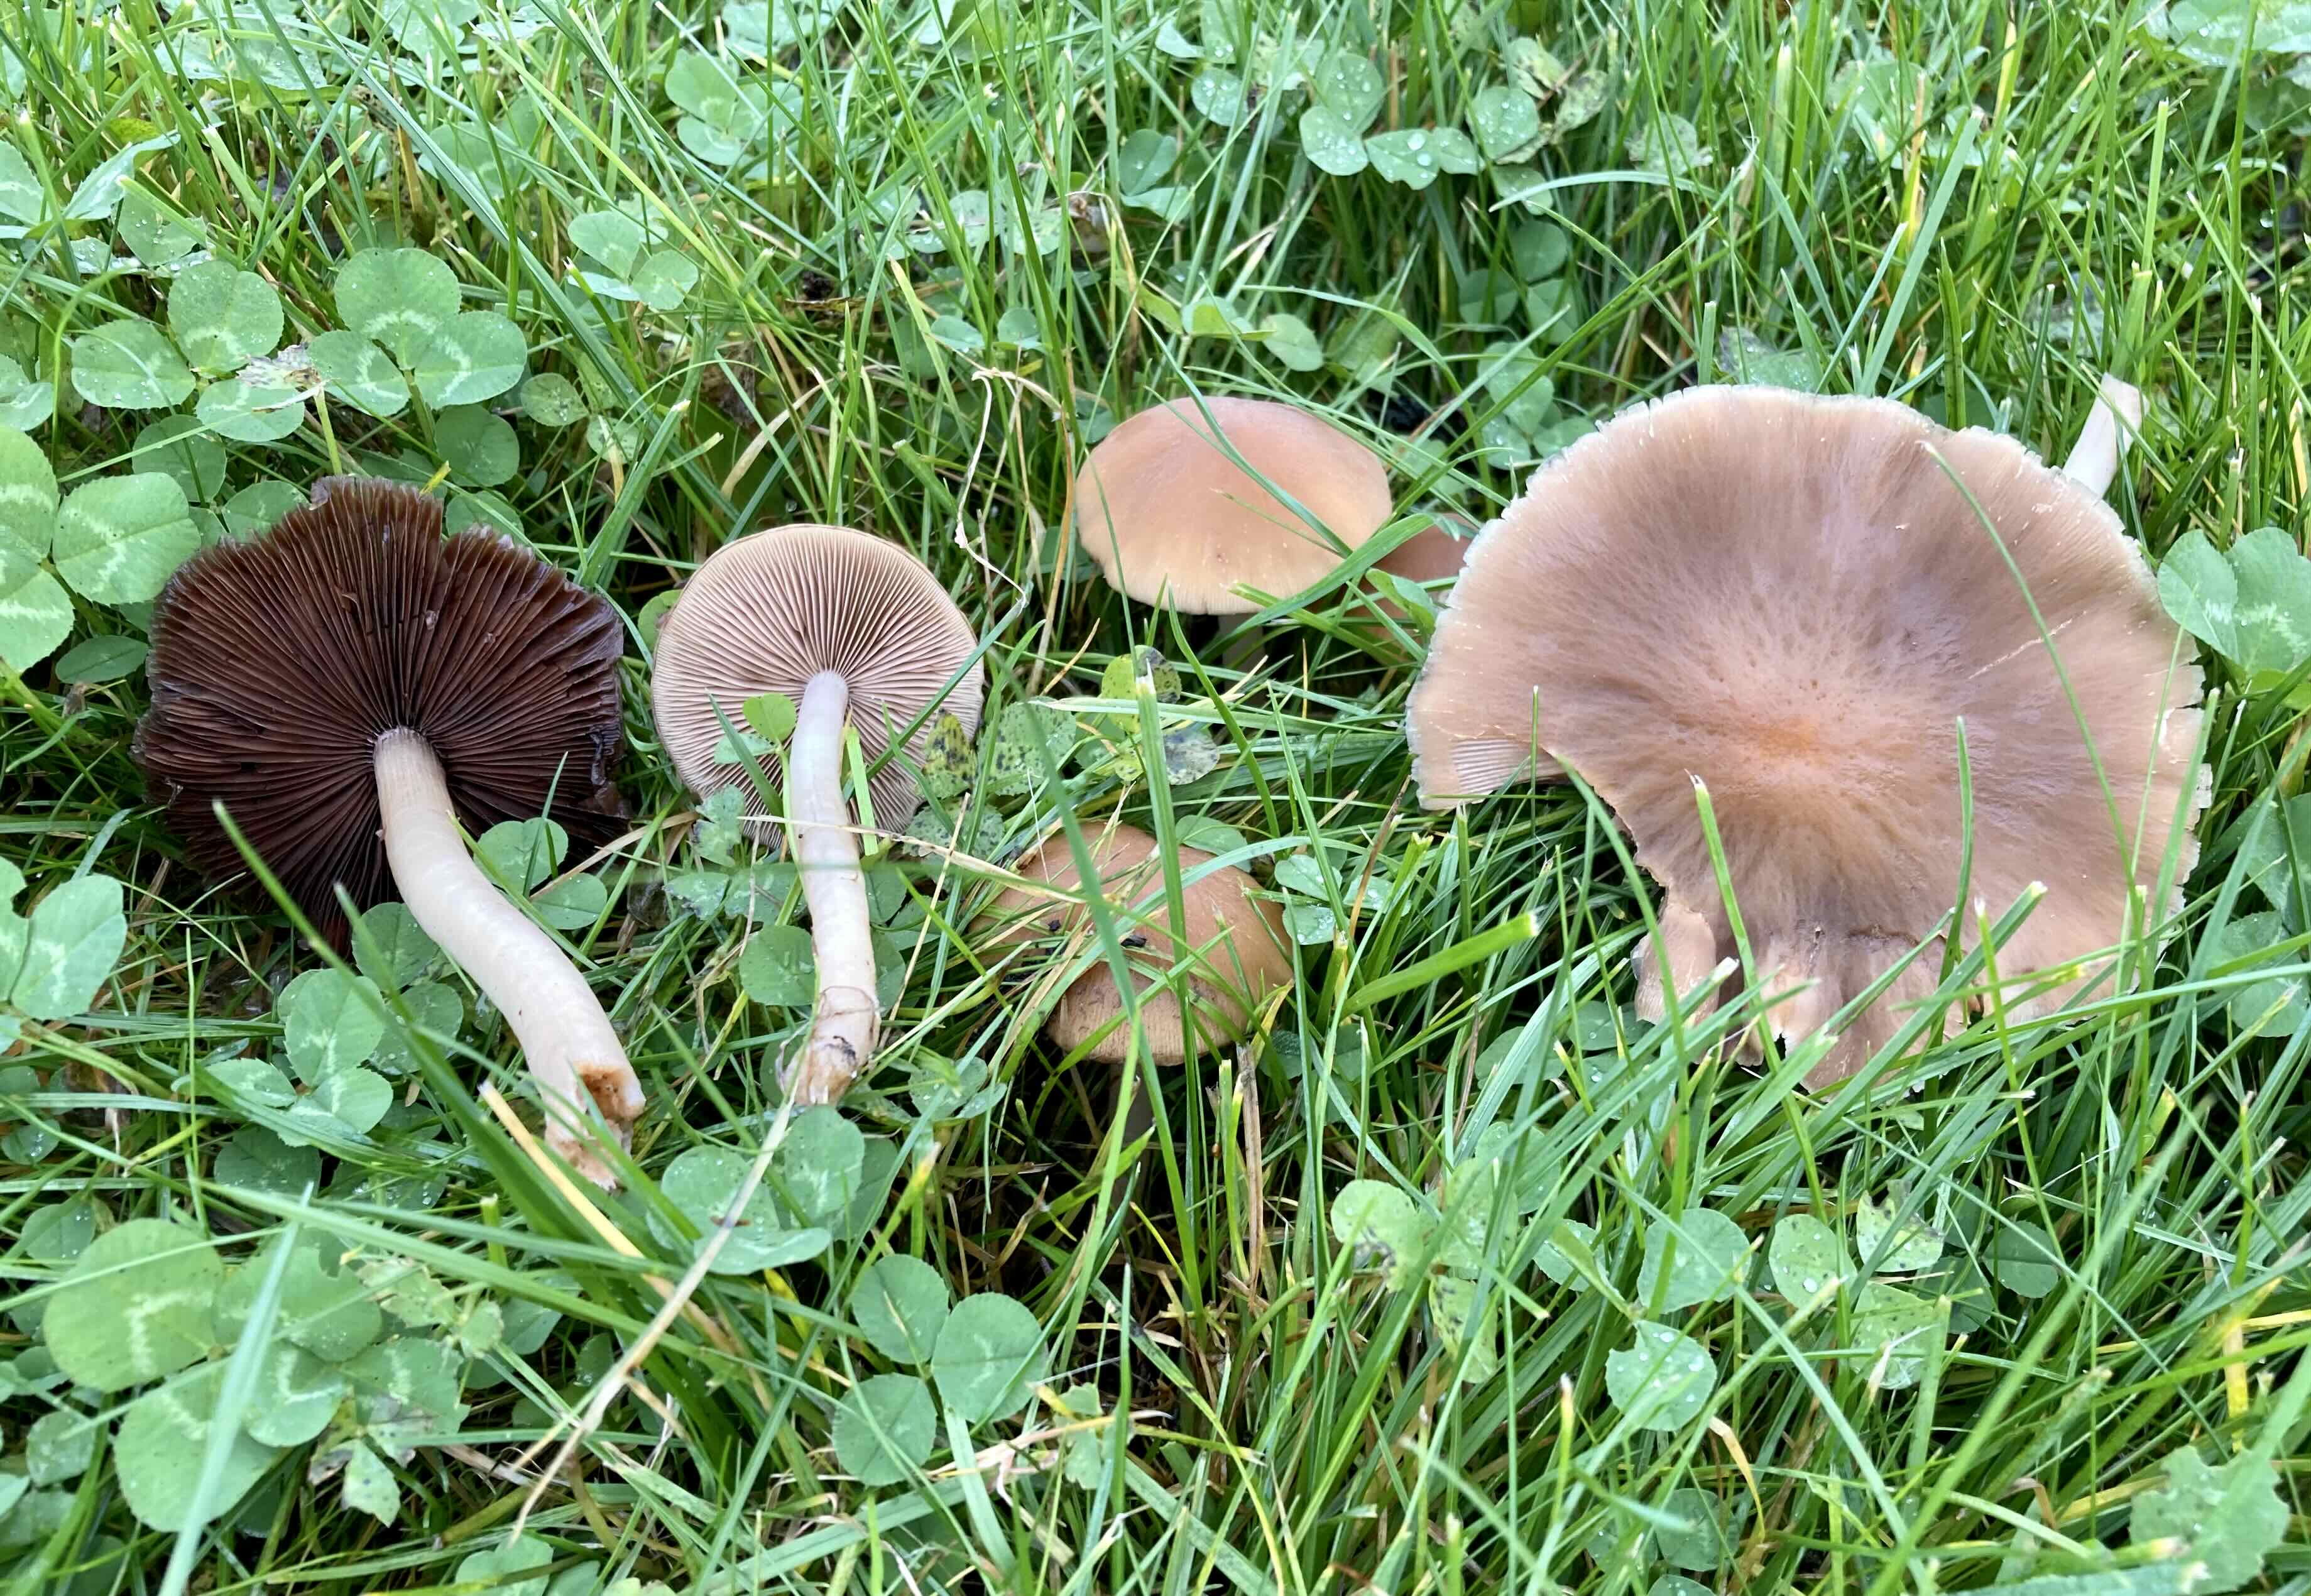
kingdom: Fungi
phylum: Basidiomycota
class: Agaricomycetes
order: Agaricales
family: Psathyrellaceae
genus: Psathyrella
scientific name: Psathyrella
